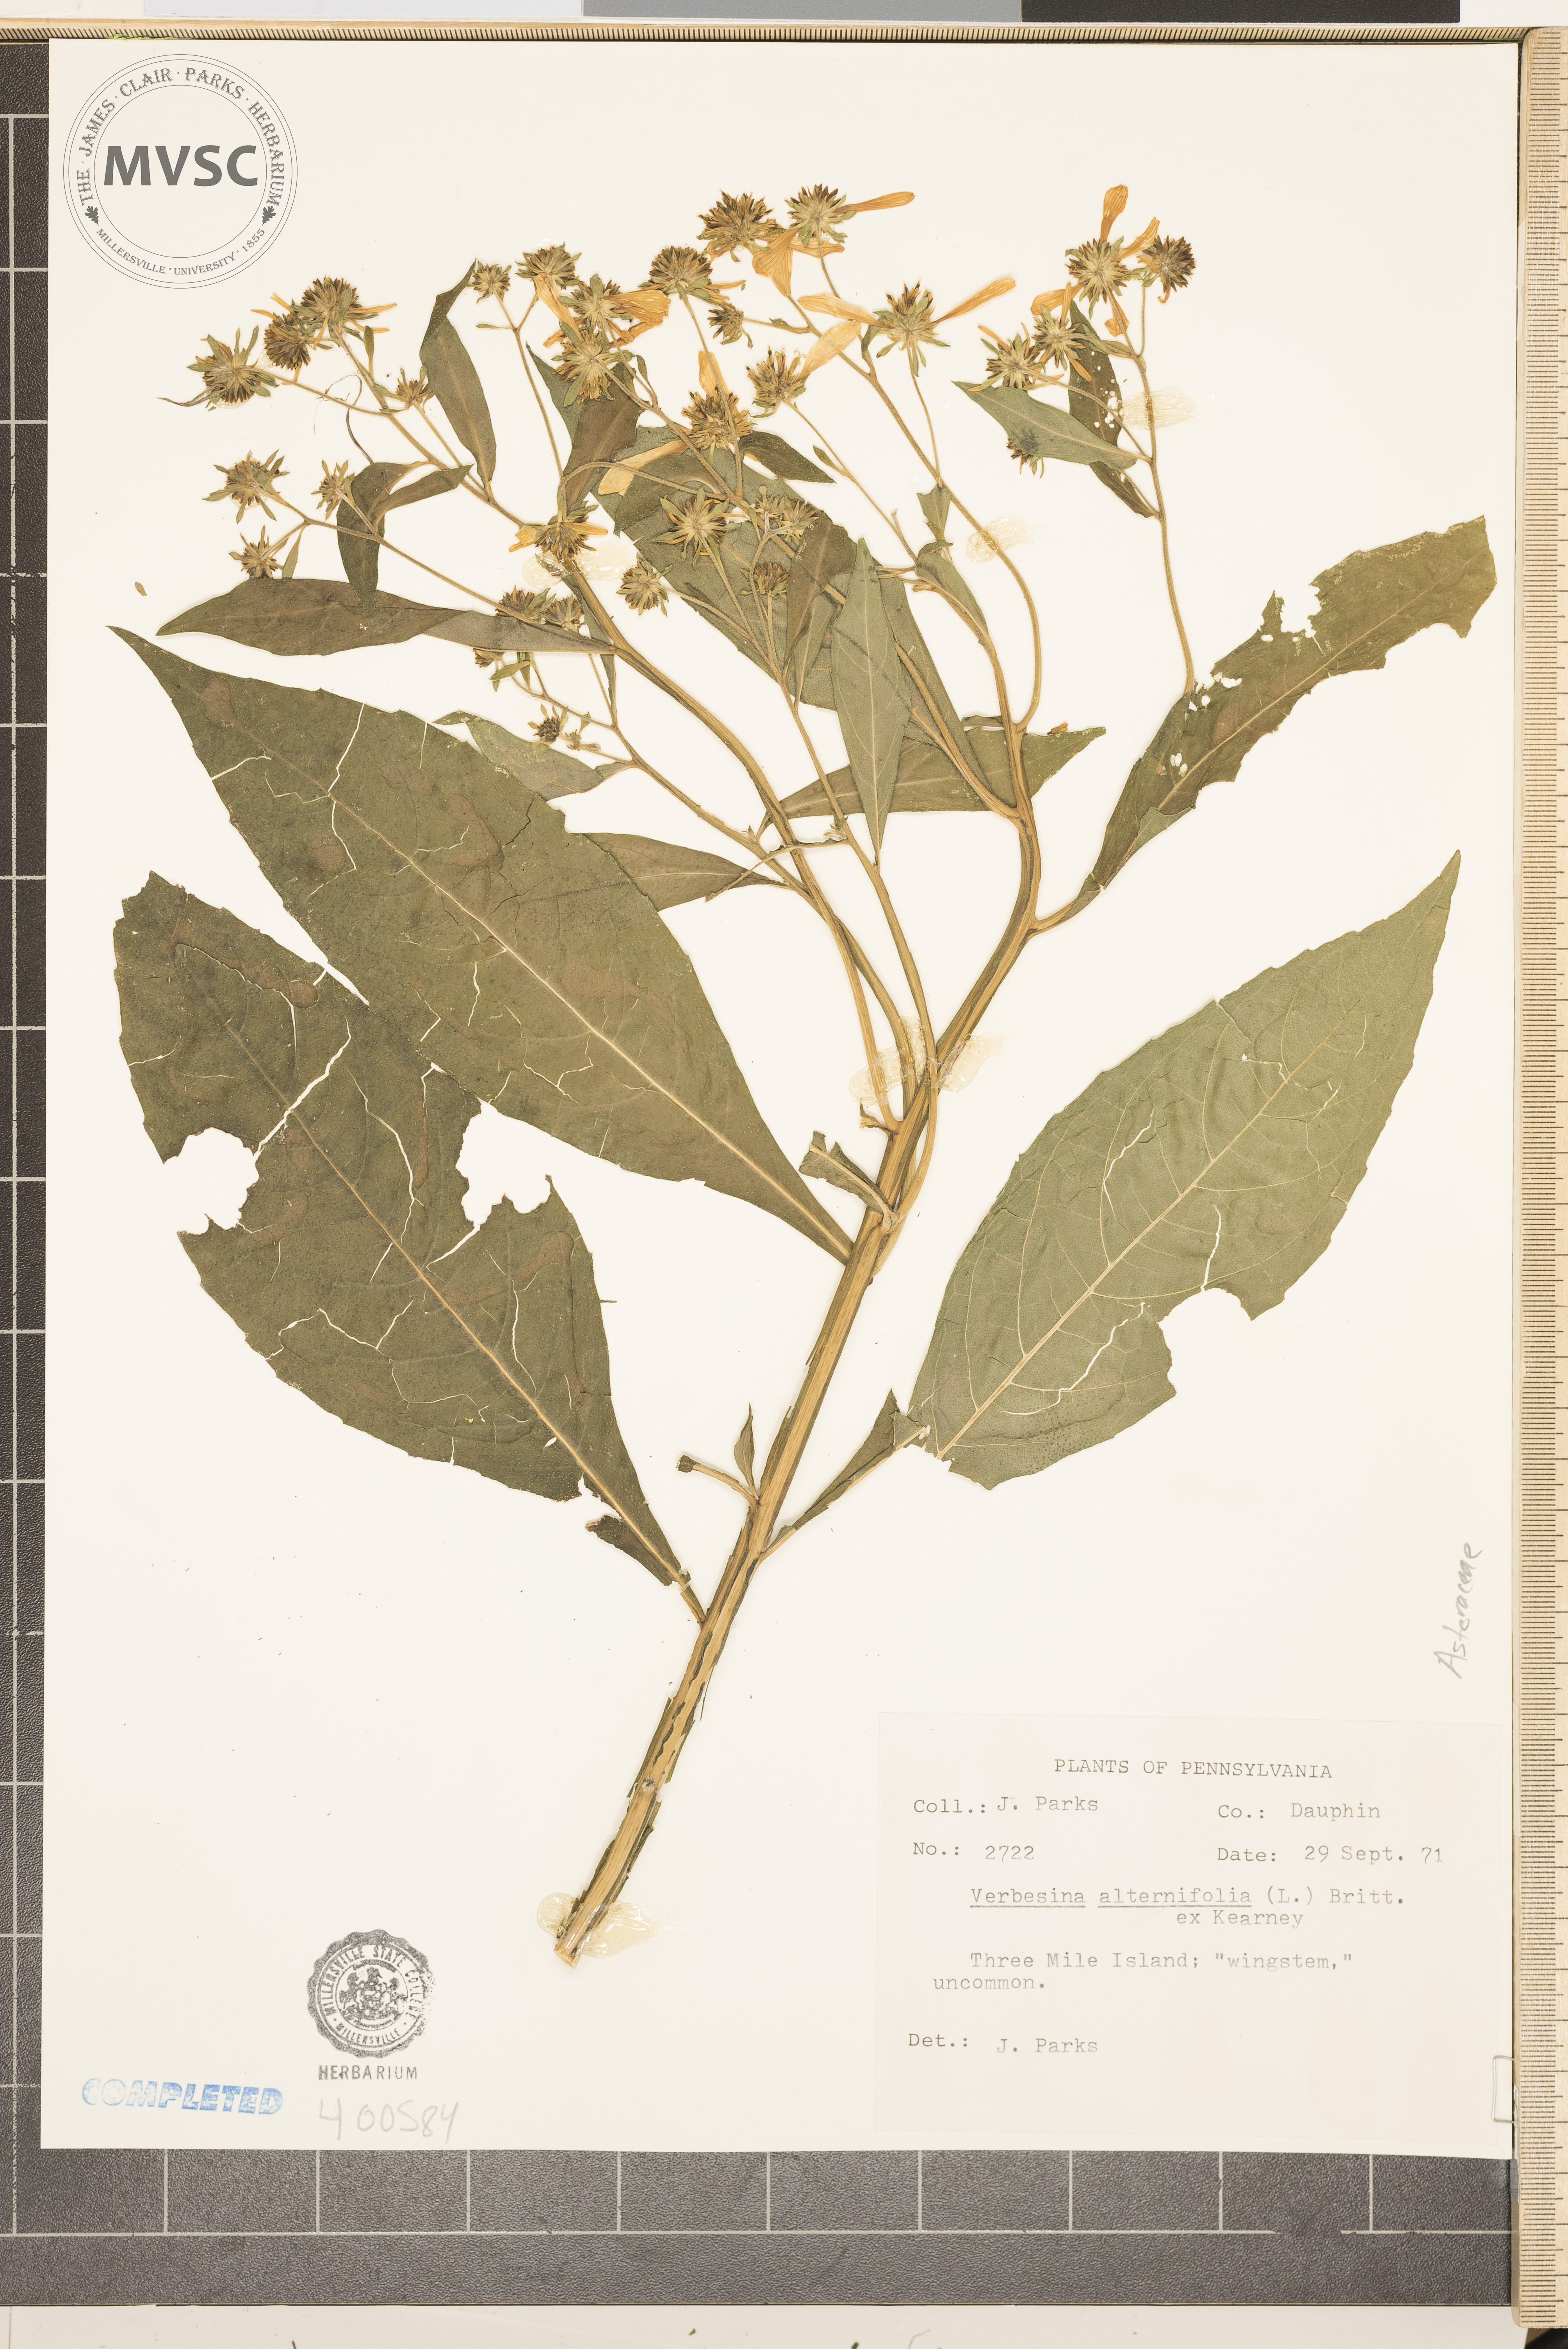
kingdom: Plantae
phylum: Tracheophyta
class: Magnoliopsida
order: Asterales
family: Asteraceae
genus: Verbesina
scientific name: Verbesina alternifolia
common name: Wingstem
